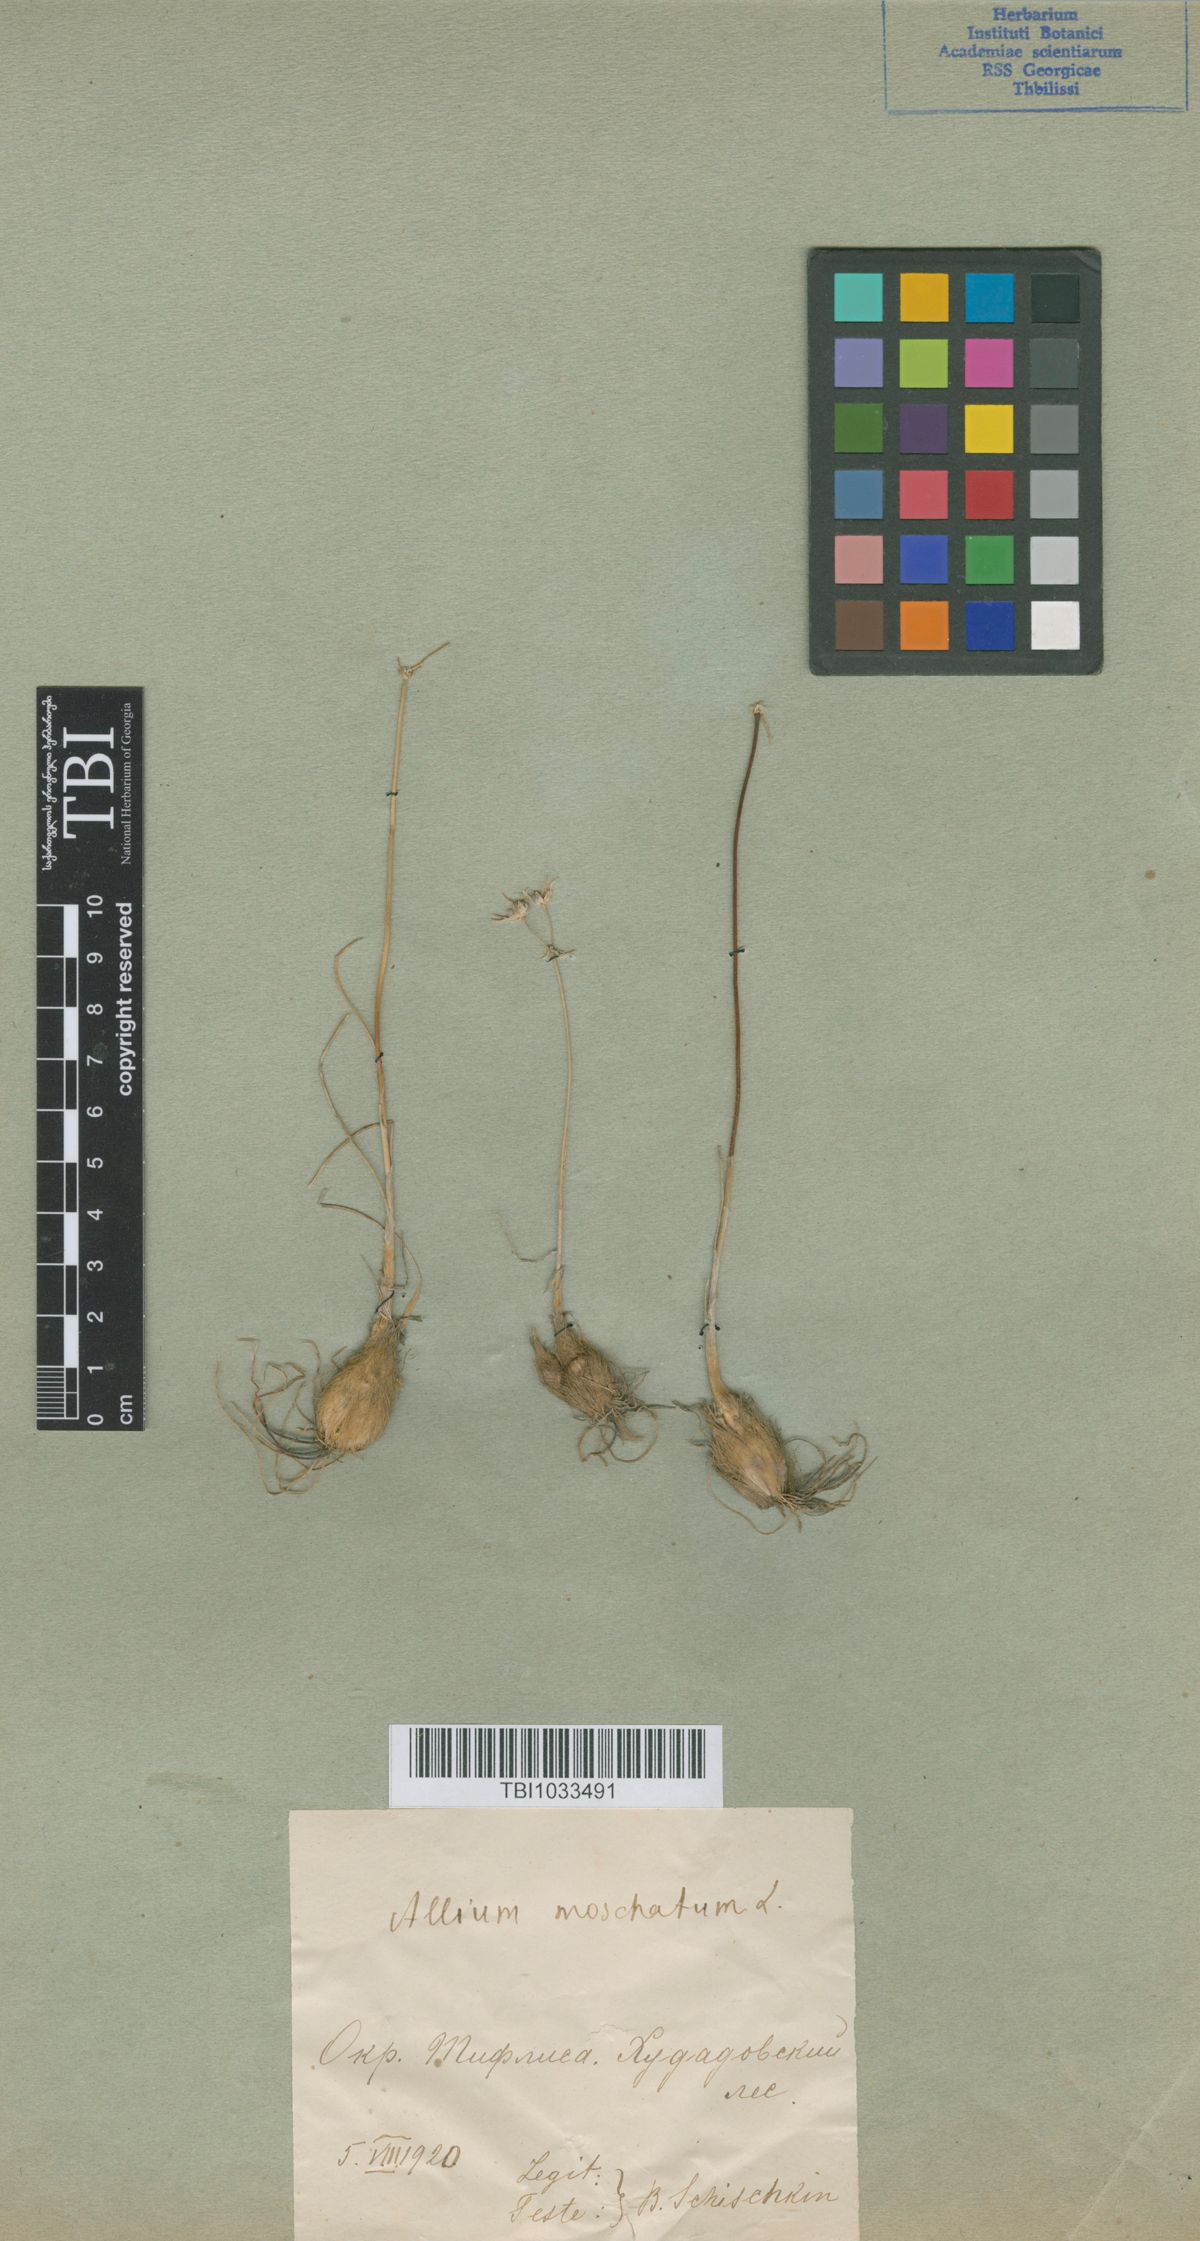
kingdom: Plantae
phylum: Tracheophyta
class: Liliopsida
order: Asparagales
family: Amaryllidaceae
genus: Allium
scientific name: Allium moschatum
